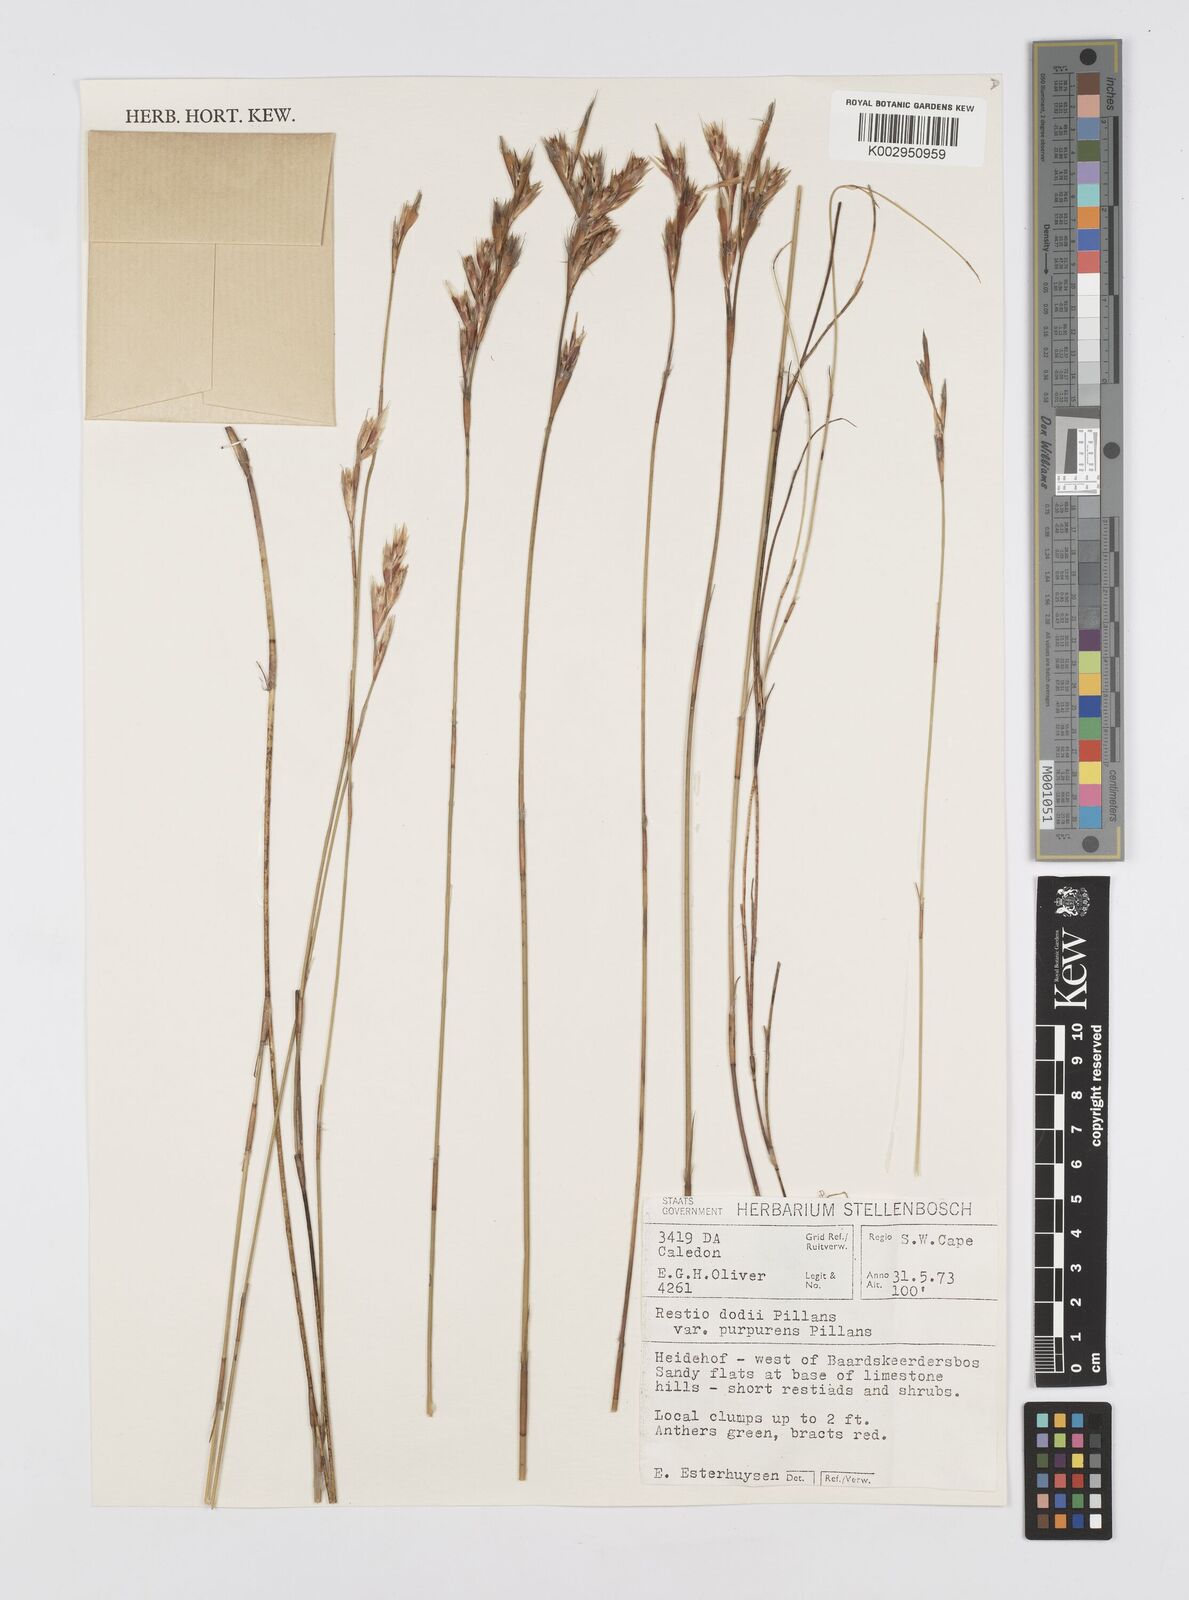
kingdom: Plantae
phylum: Tracheophyta
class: Liliopsida
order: Poales
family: Restionaceae
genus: Restio
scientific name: Restio dodii
